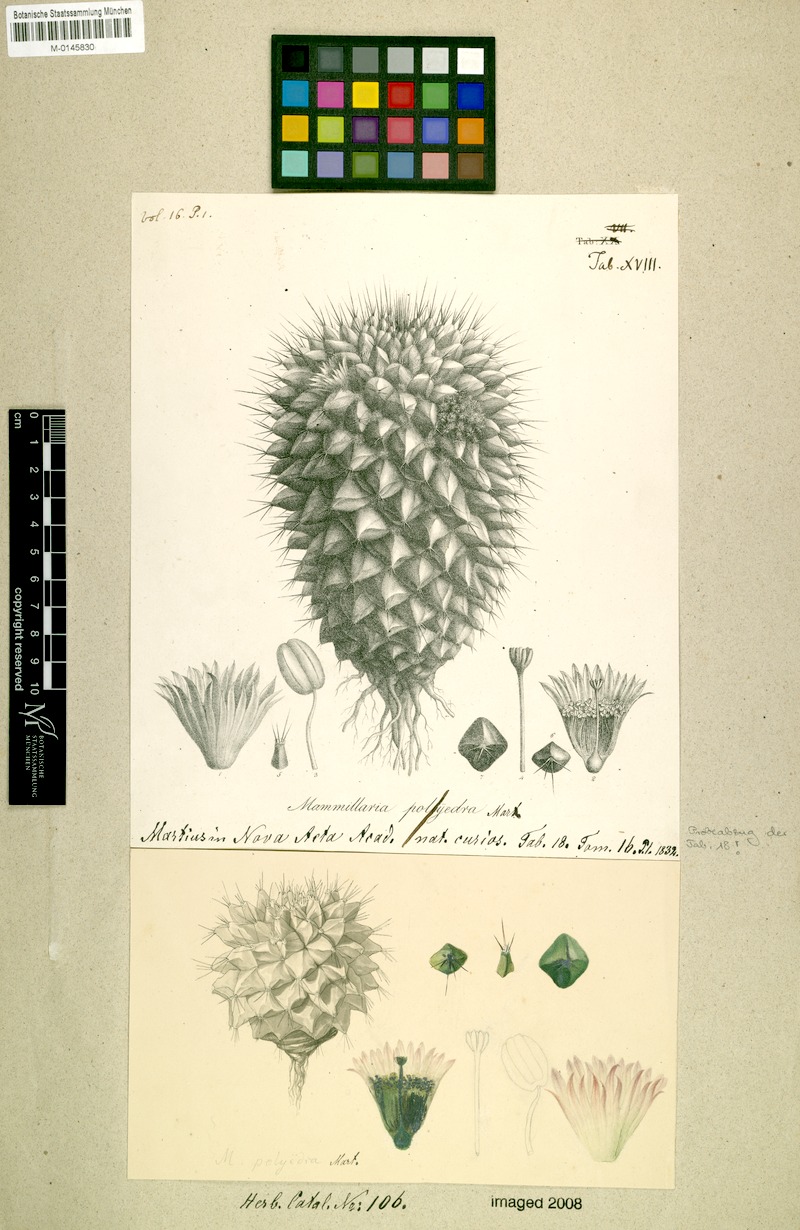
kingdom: Plantae
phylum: Tracheophyta
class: Magnoliopsida
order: Caryophyllales
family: Cactaceae
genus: Mammillaria
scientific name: Mammillaria polyedra
